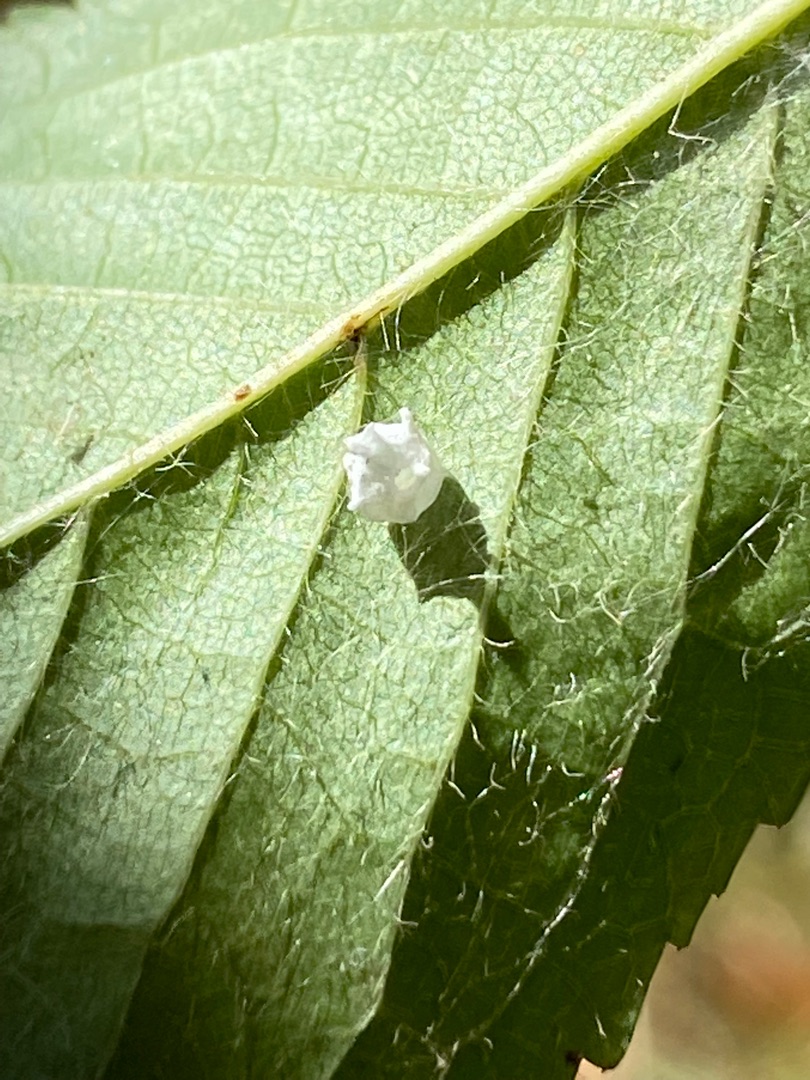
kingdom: Animalia
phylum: Arthropoda
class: Arachnida
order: Araneae
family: Theridiidae
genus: Paidiscura
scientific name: Paidiscura pallens
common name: Lille bladkugleedderkop
